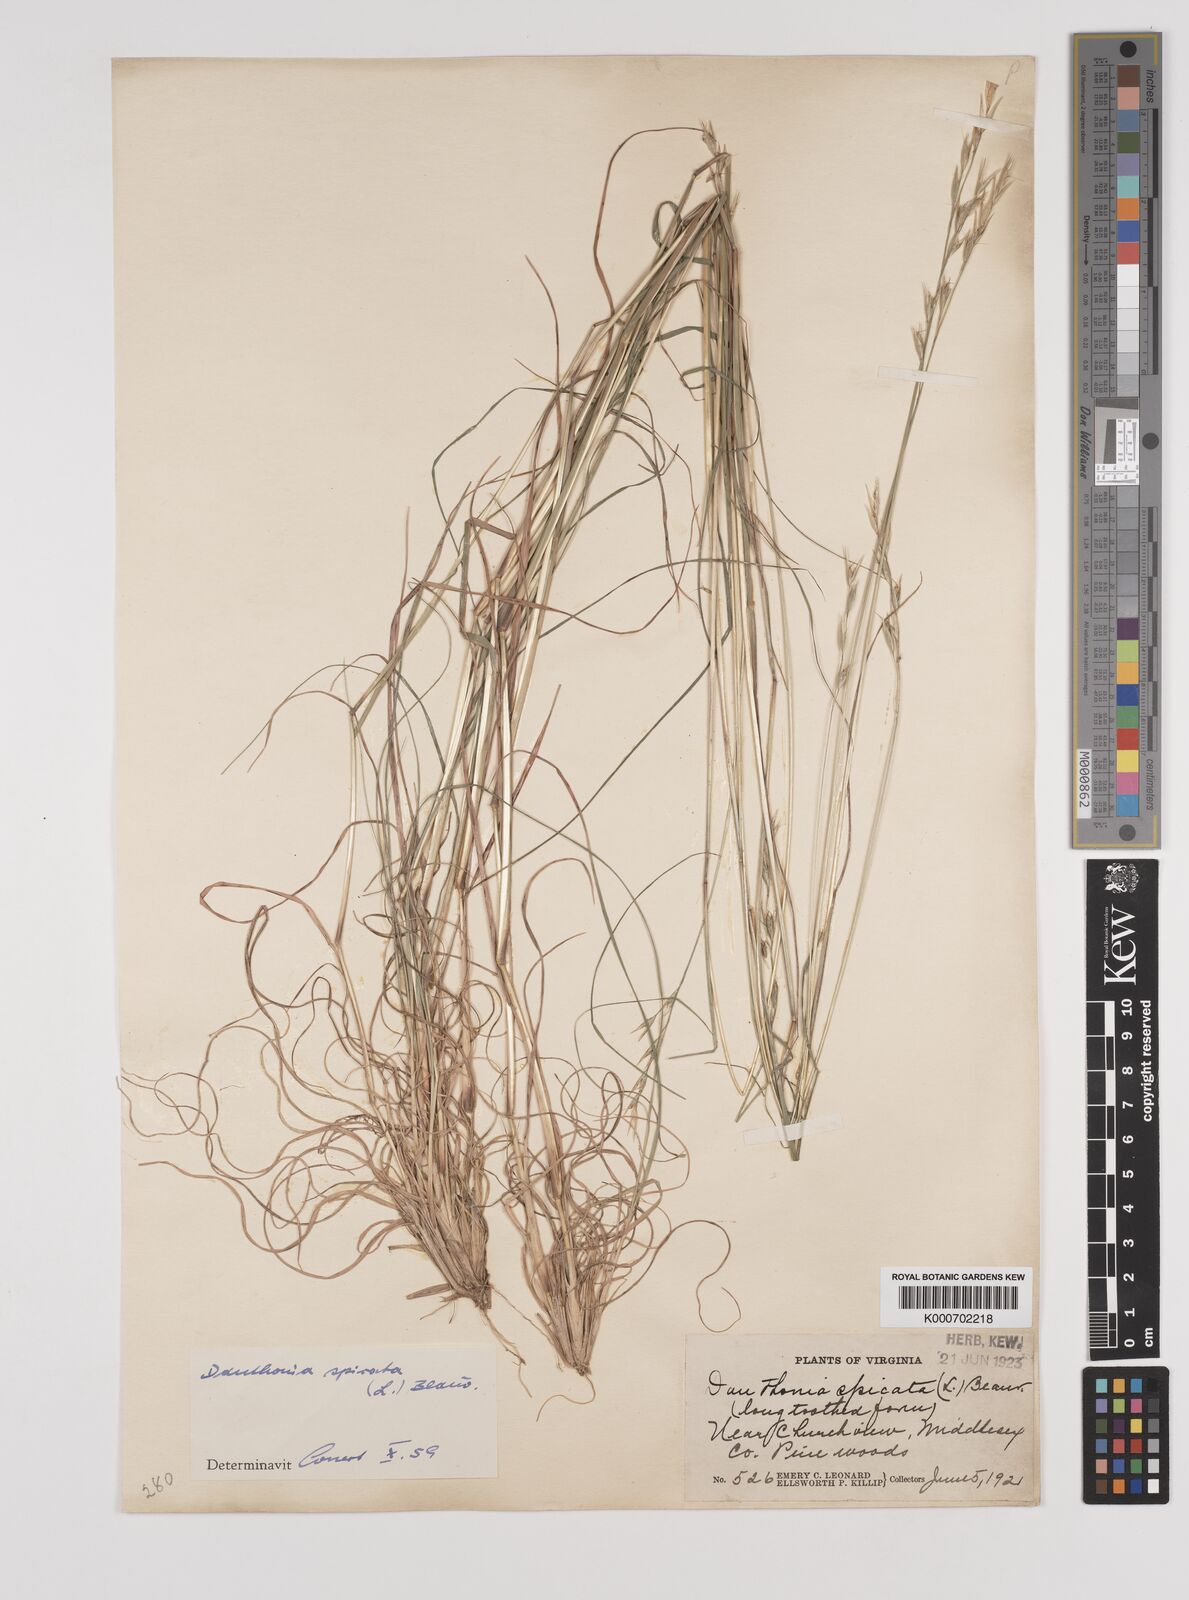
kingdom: Plantae
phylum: Tracheophyta
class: Liliopsida
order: Poales
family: Poaceae
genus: Danthonia
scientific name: Danthonia spicata
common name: Common wild oatgrass
